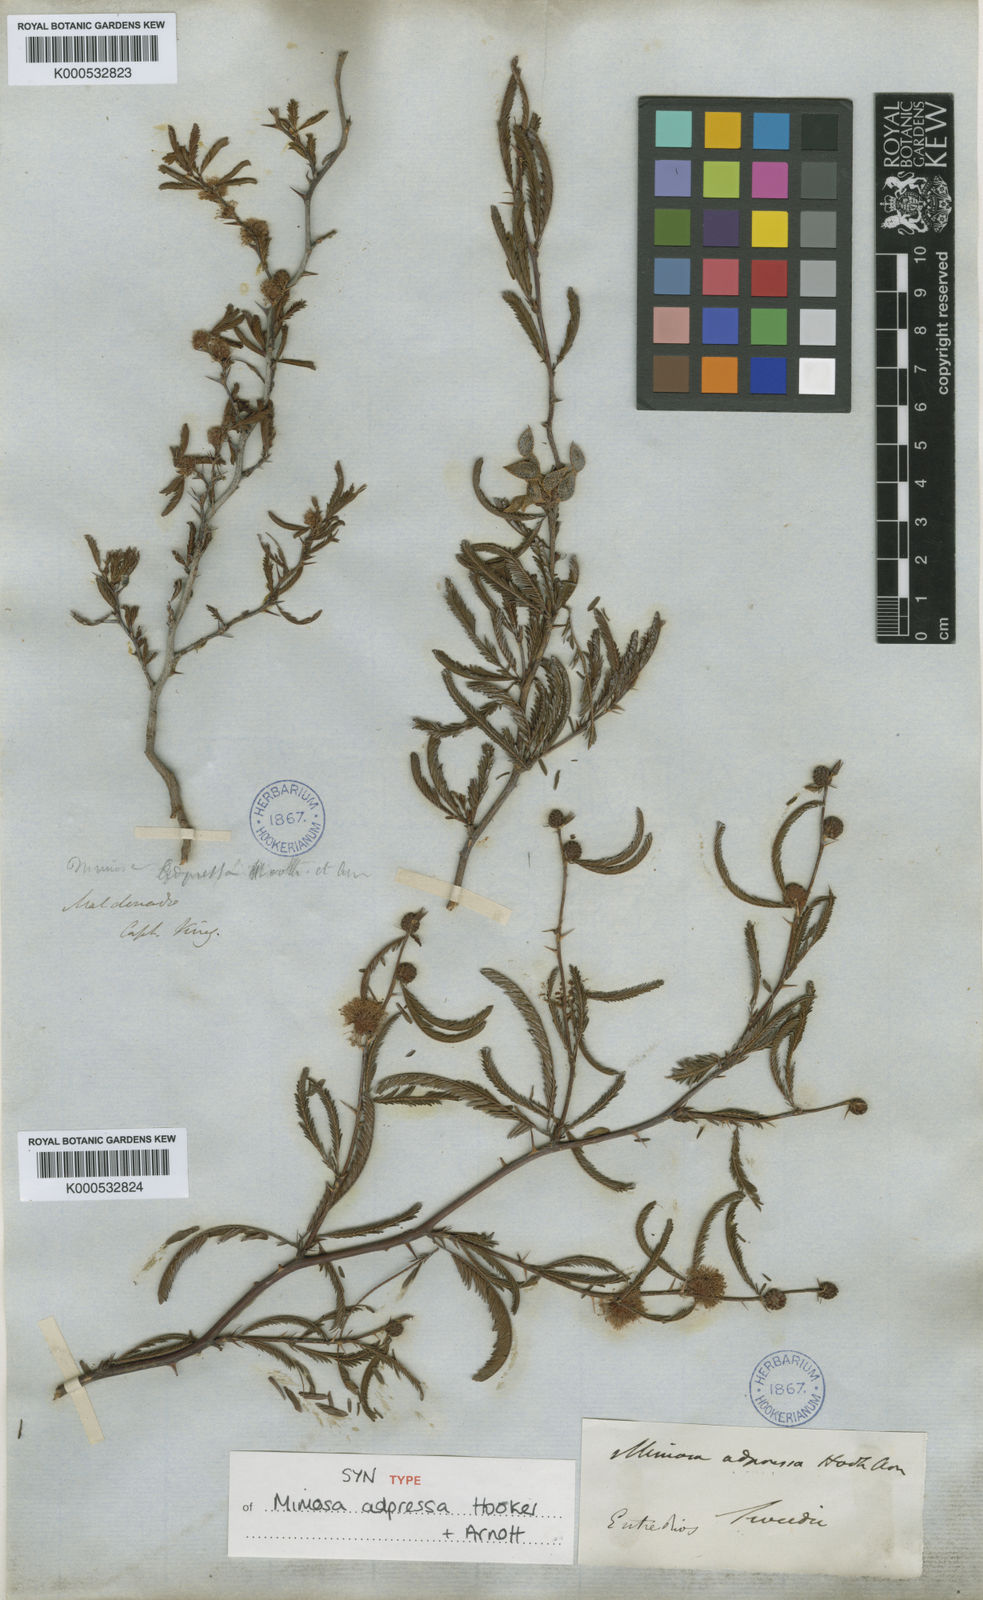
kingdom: Plantae
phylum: Tracheophyta
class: Magnoliopsida
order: Fabales
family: Fabaceae
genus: Mimosa
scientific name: Mimosa adpressa
